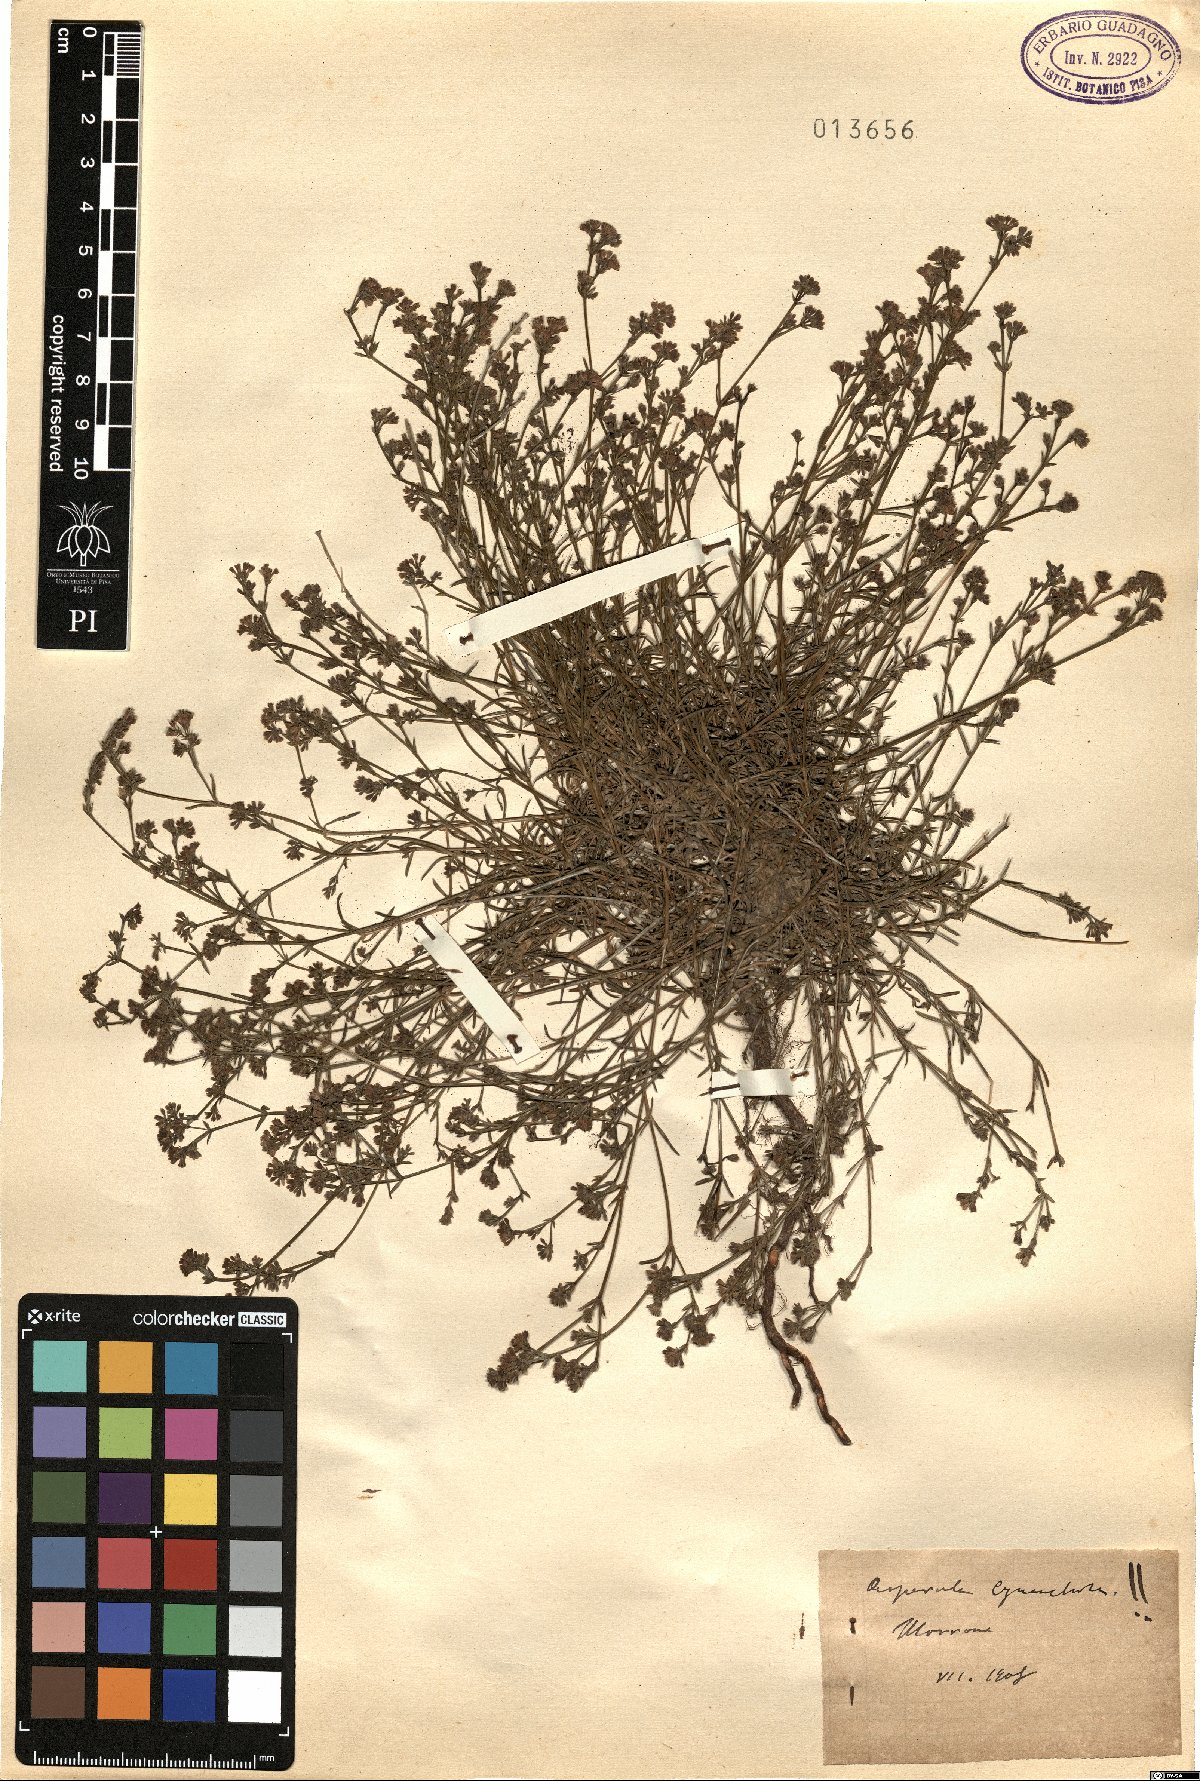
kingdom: Plantae
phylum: Tracheophyta
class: Magnoliopsida
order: Gentianales
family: Rubiaceae
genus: Cynanchica
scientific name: Cynanchica pyrenaica
